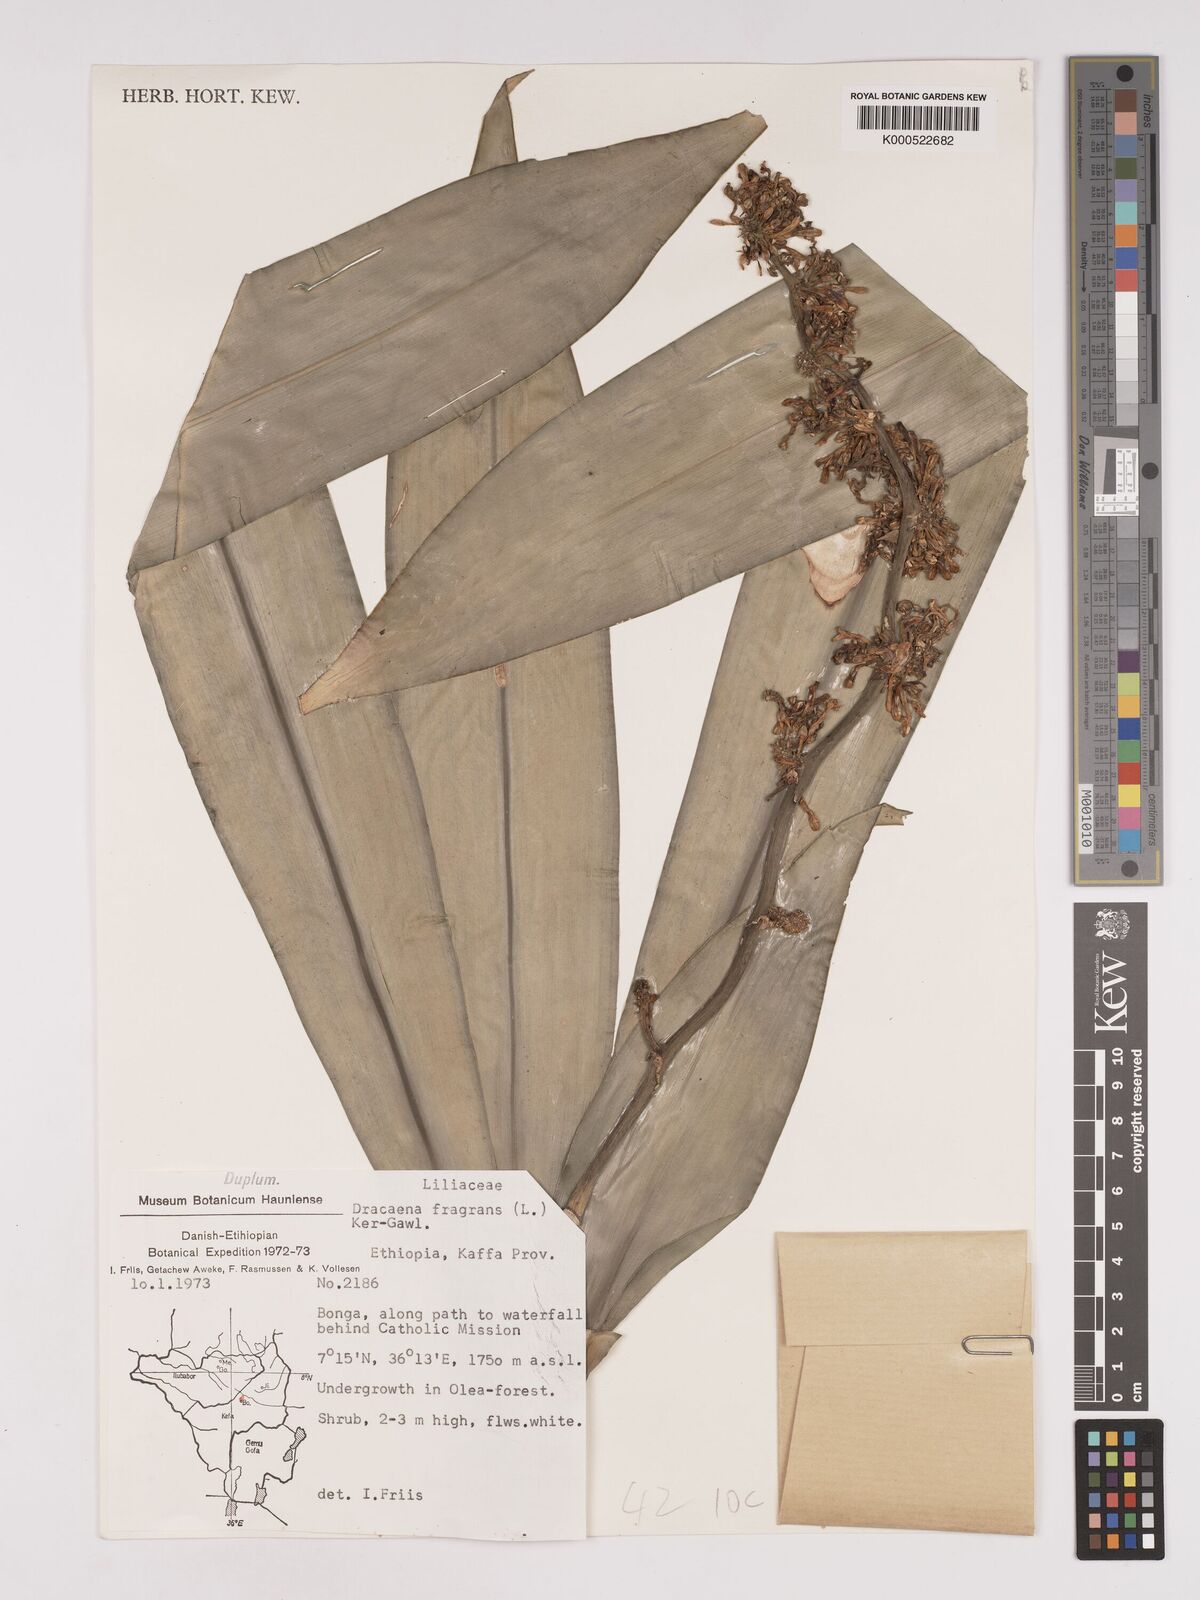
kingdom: Plantae
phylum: Tracheophyta
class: Liliopsida
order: Asparagales
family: Asparagaceae
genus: Dracaena
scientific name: Dracaena fragrans
